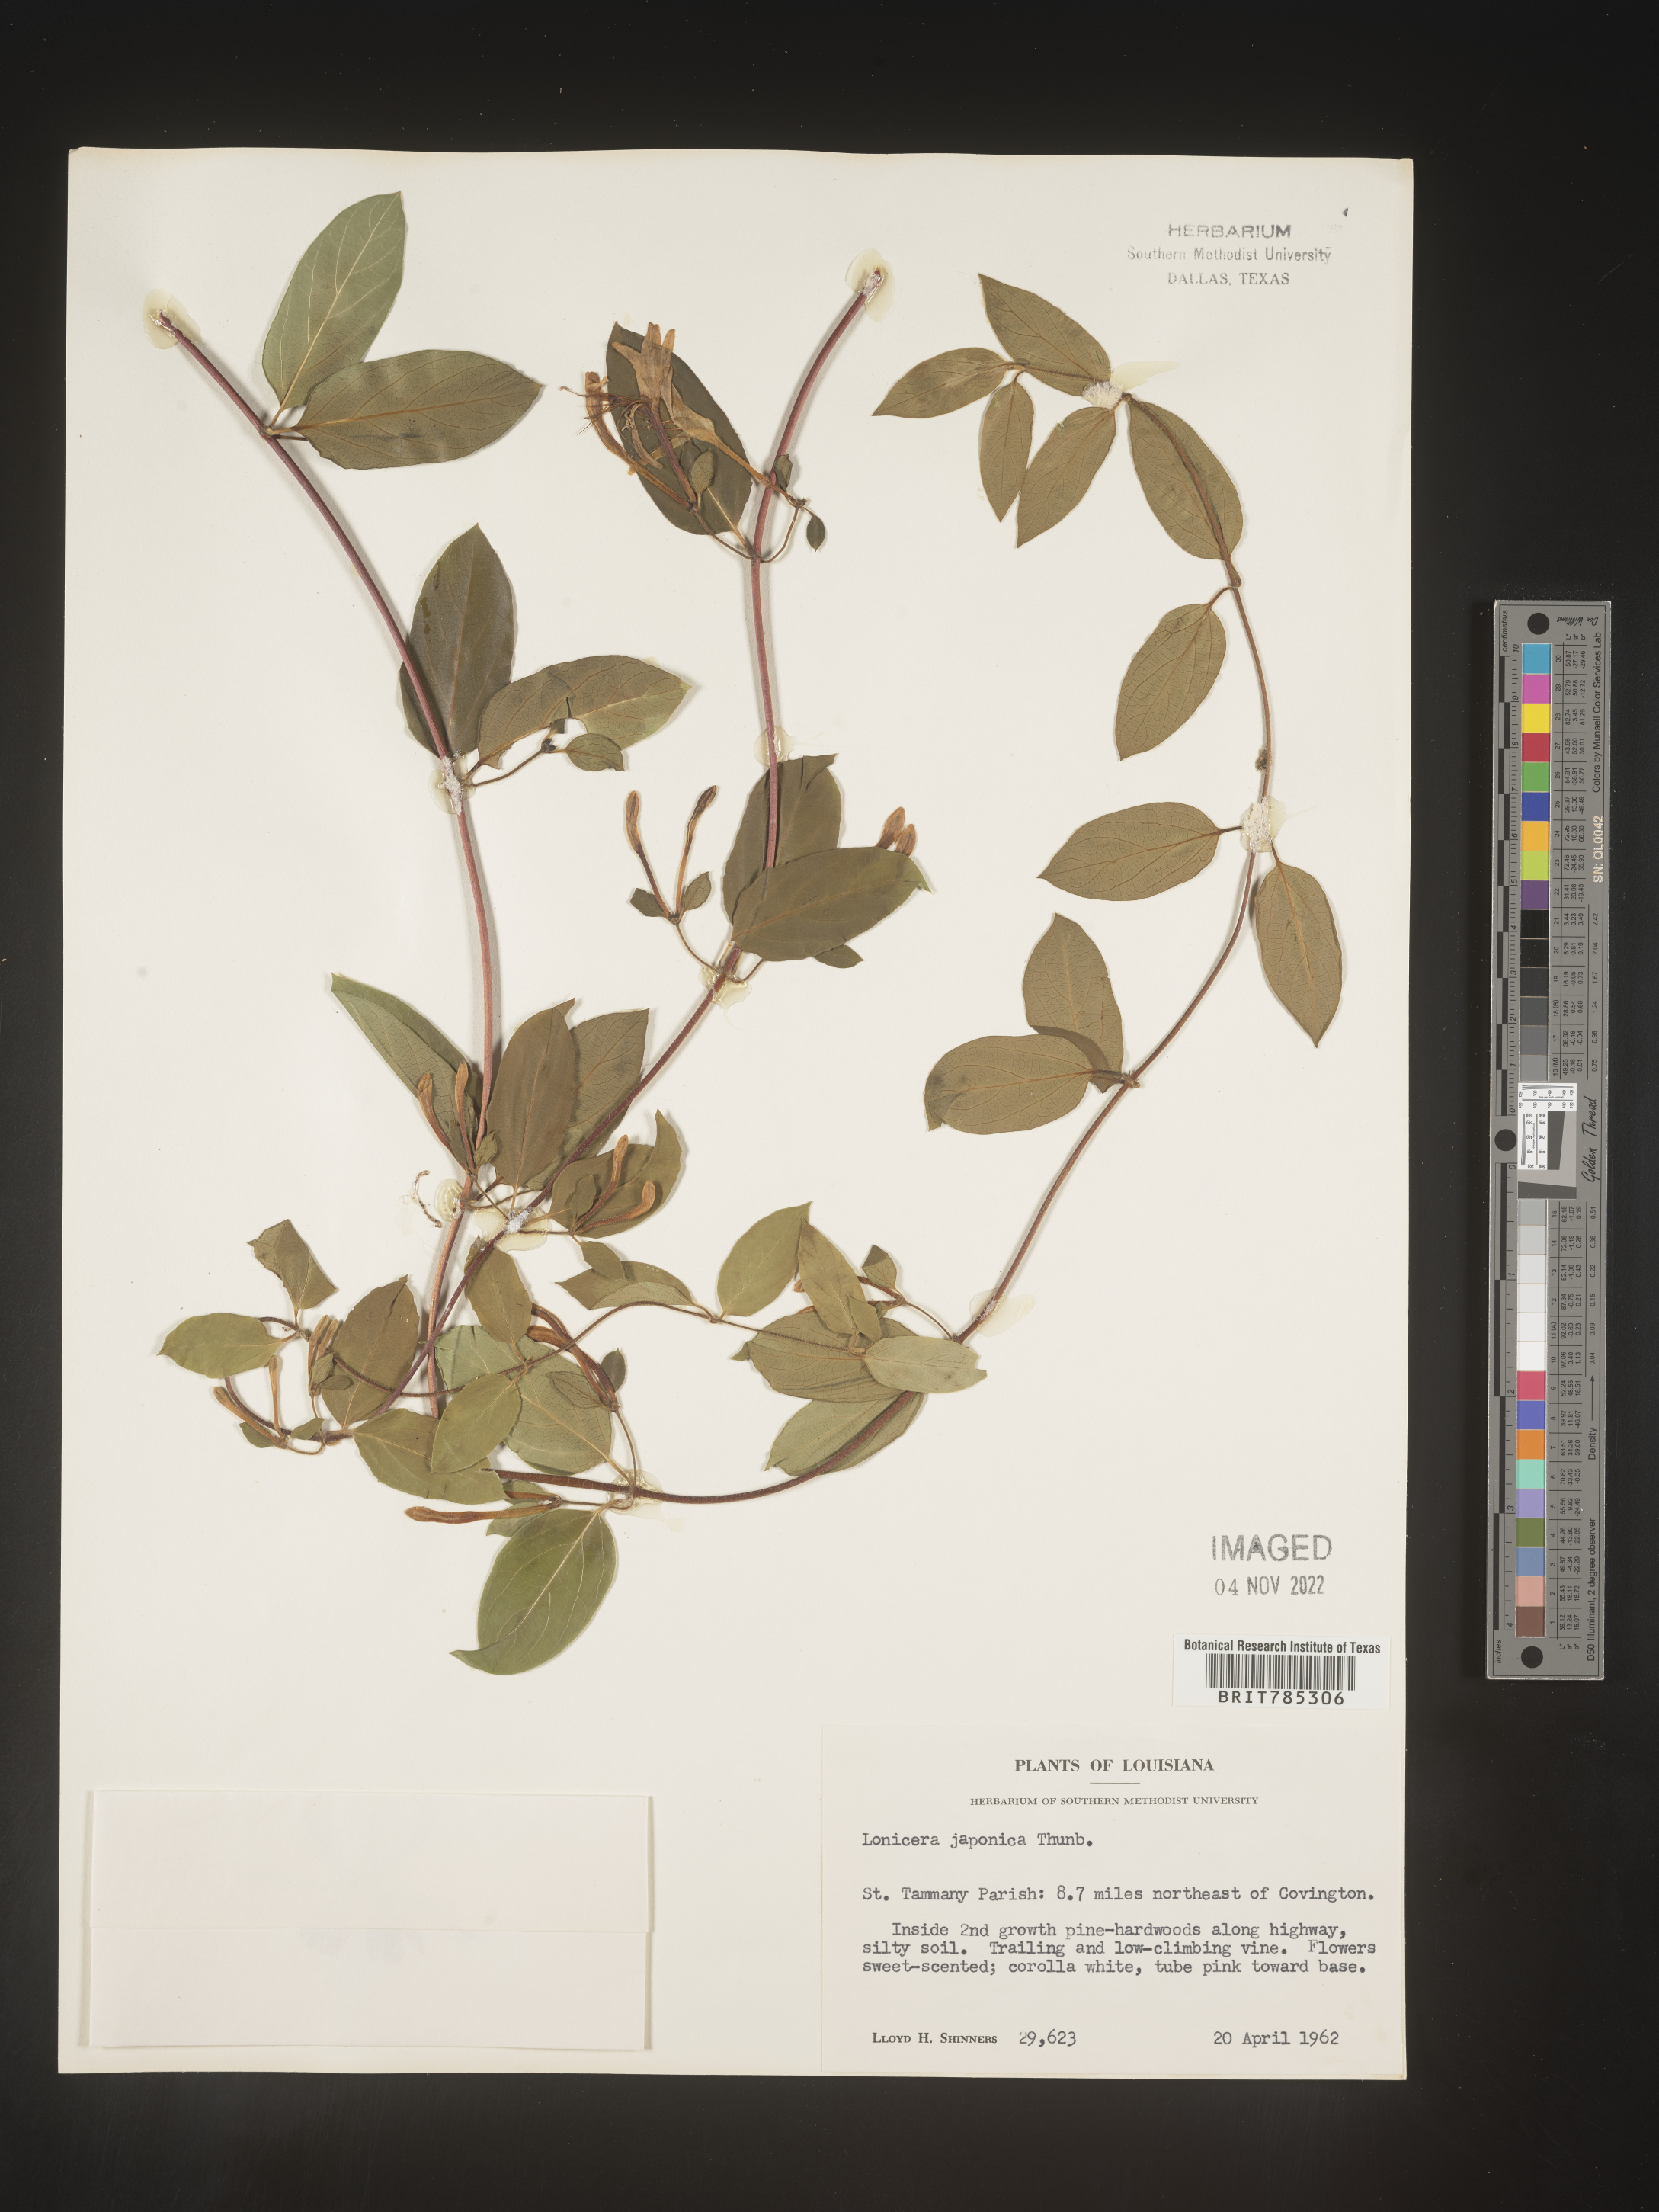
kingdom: Plantae
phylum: Tracheophyta
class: Magnoliopsida
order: Dipsacales
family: Caprifoliaceae
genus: Lonicera
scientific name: Lonicera japonica
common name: Japanese honeysuckle
